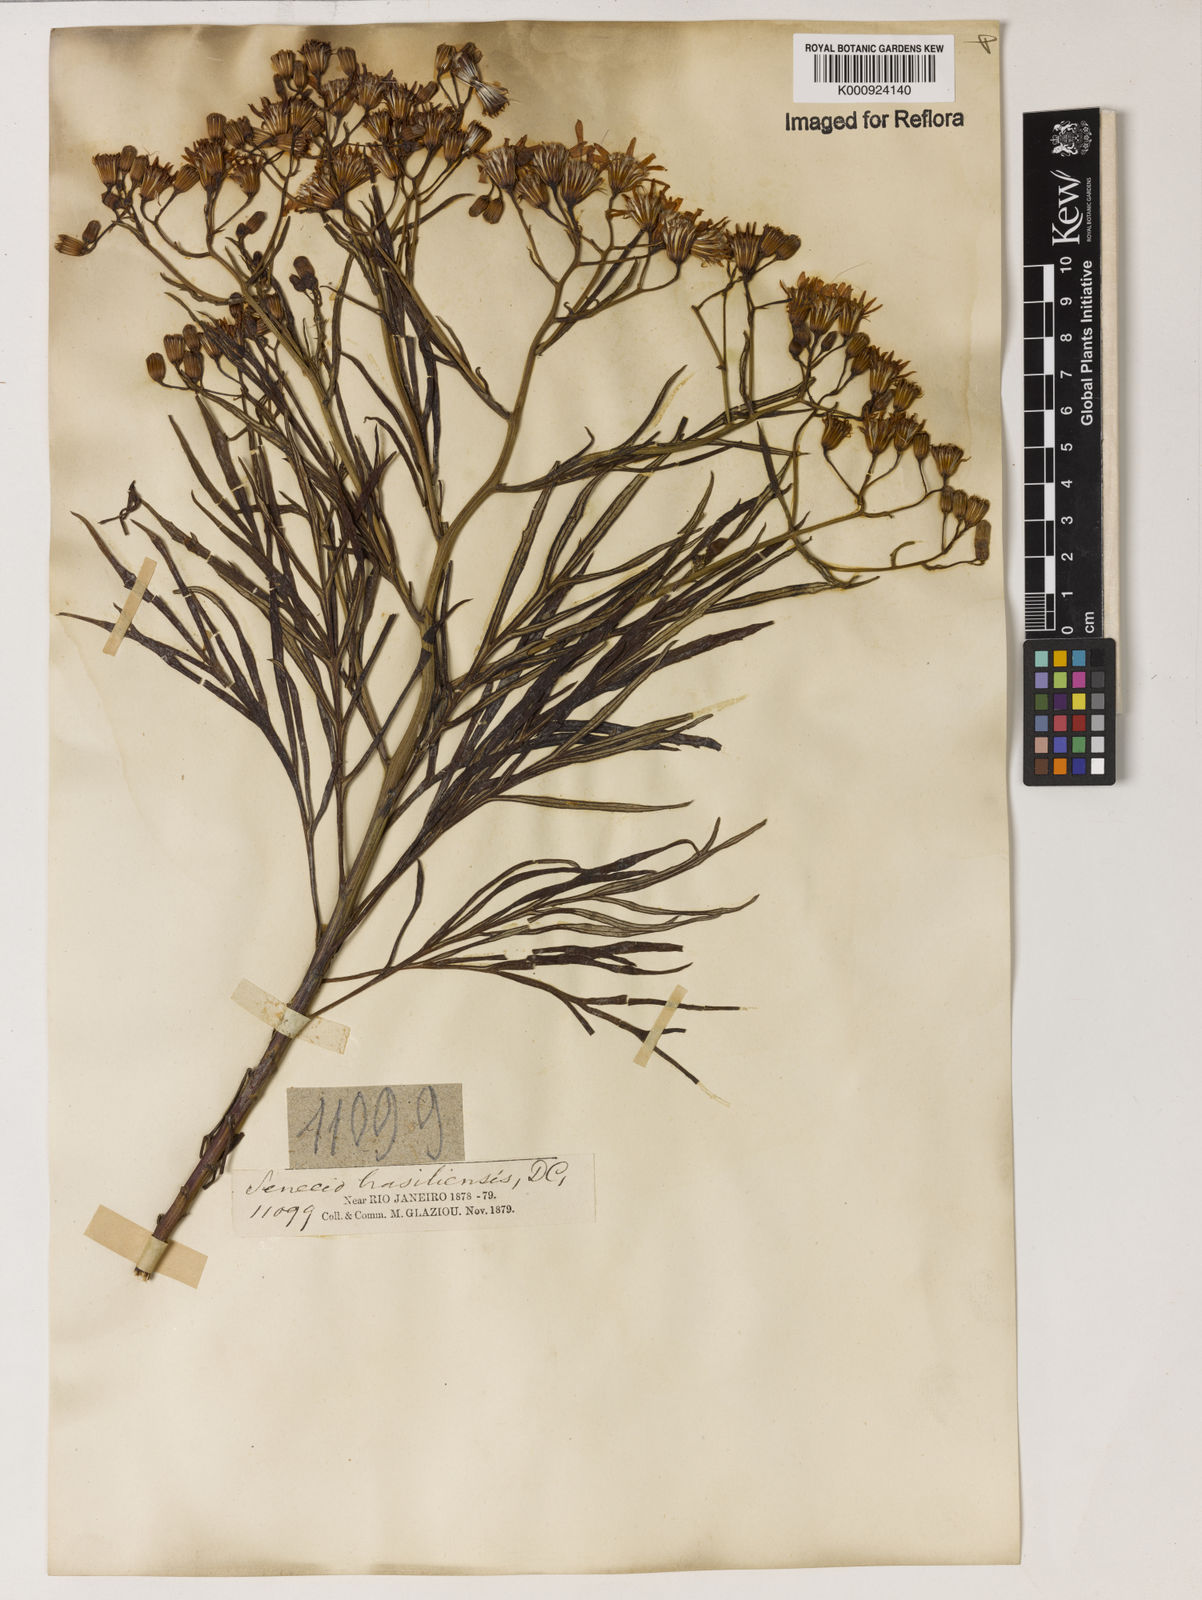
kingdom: Plantae
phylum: Tracheophyta
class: Magnoliopsida
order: Asterales
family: Asteraceae
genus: Senecio
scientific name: Senecio brasiliensis
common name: Hemp-leaf ragwort
